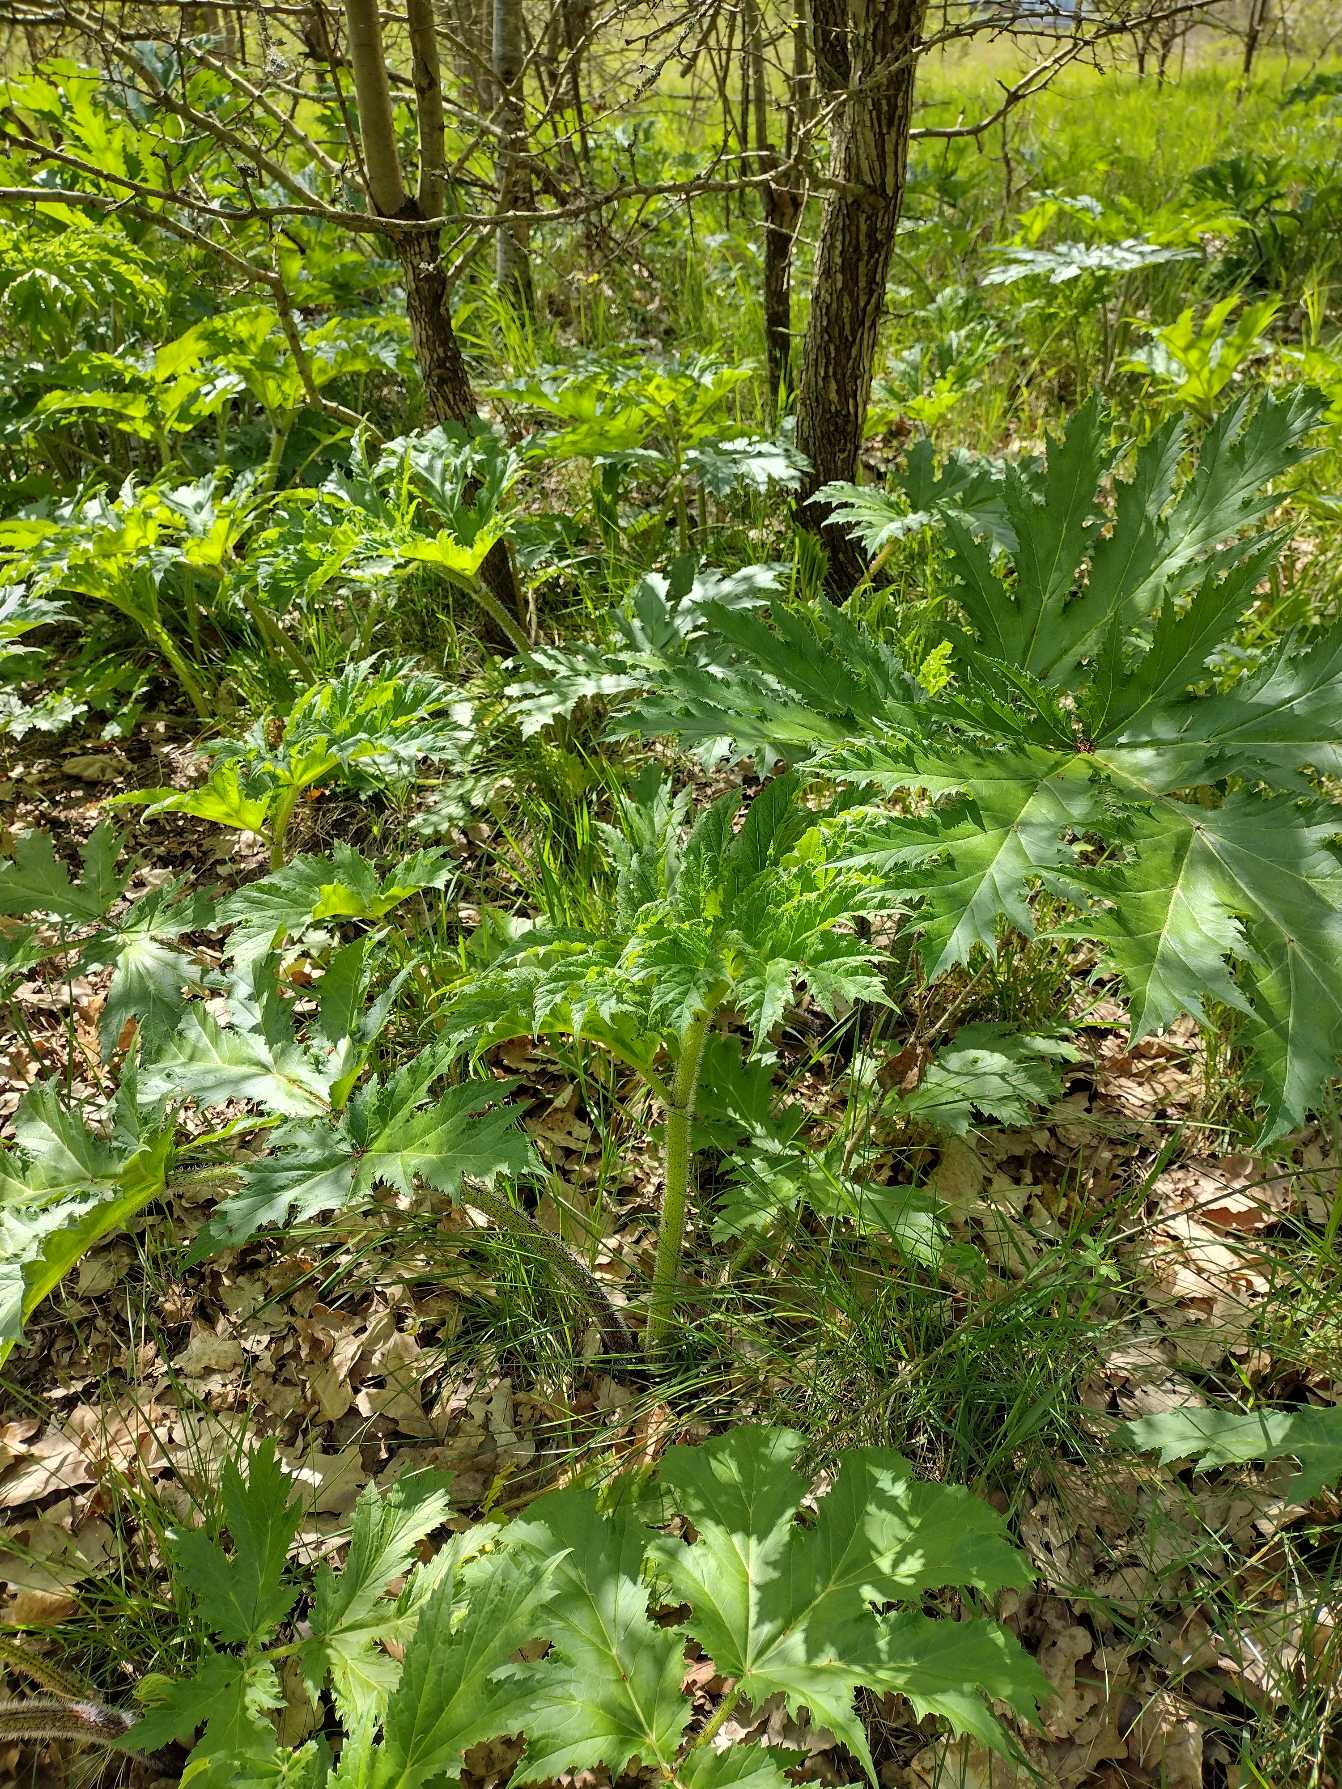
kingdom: Plantae
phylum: Tracheophyta
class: Magnoliopsida
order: Apiales
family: Apiaceae
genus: Heracleum
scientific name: Heracleum mantegazzianum
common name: Kæmpe-bjørneklo
